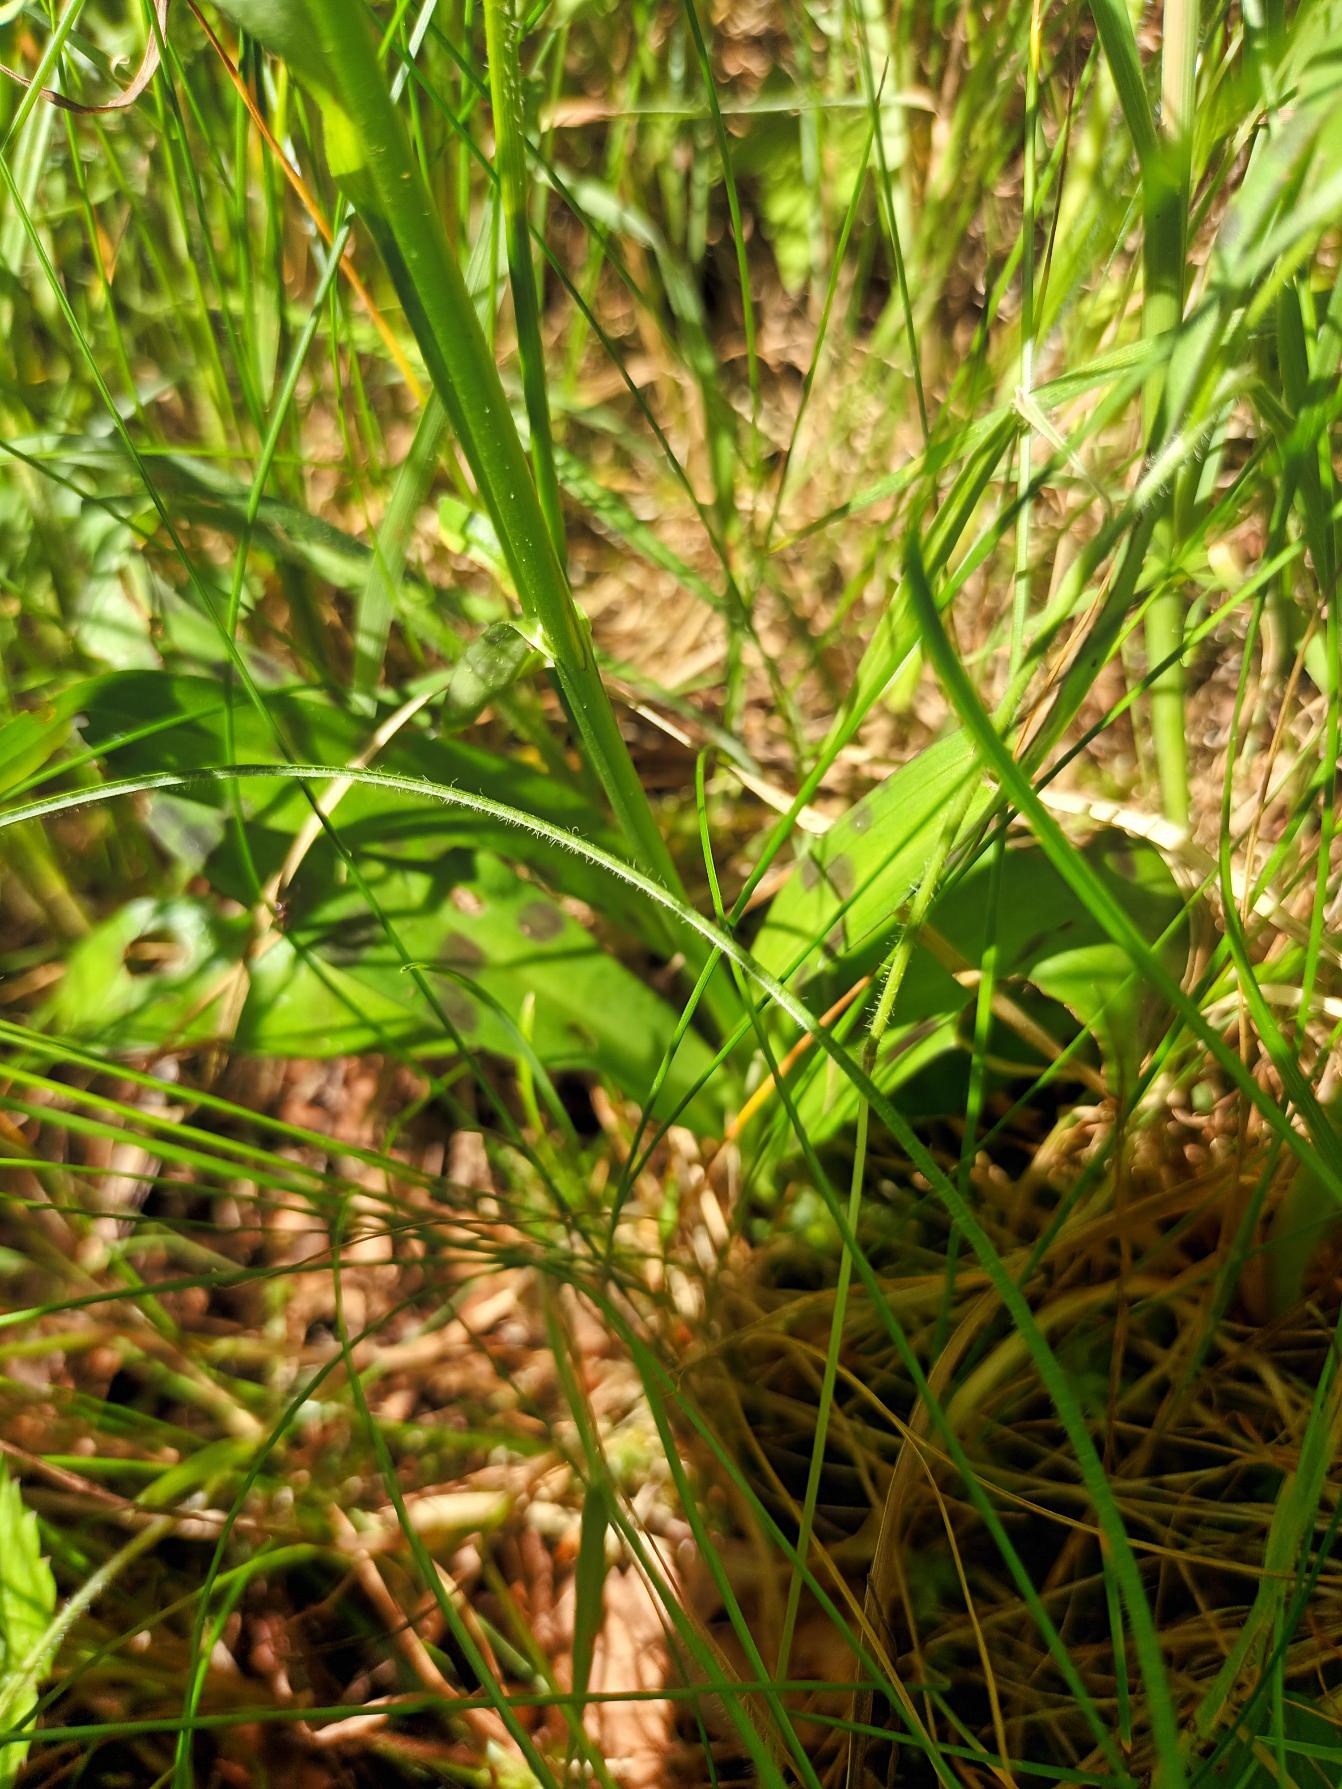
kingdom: Plantae
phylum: Tracheophyta
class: Liliopsida
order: Asparagales
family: Orchidaceae
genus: Dactylorhiza
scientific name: Dactylorhiza maculata
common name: Skov-gøgeurt
